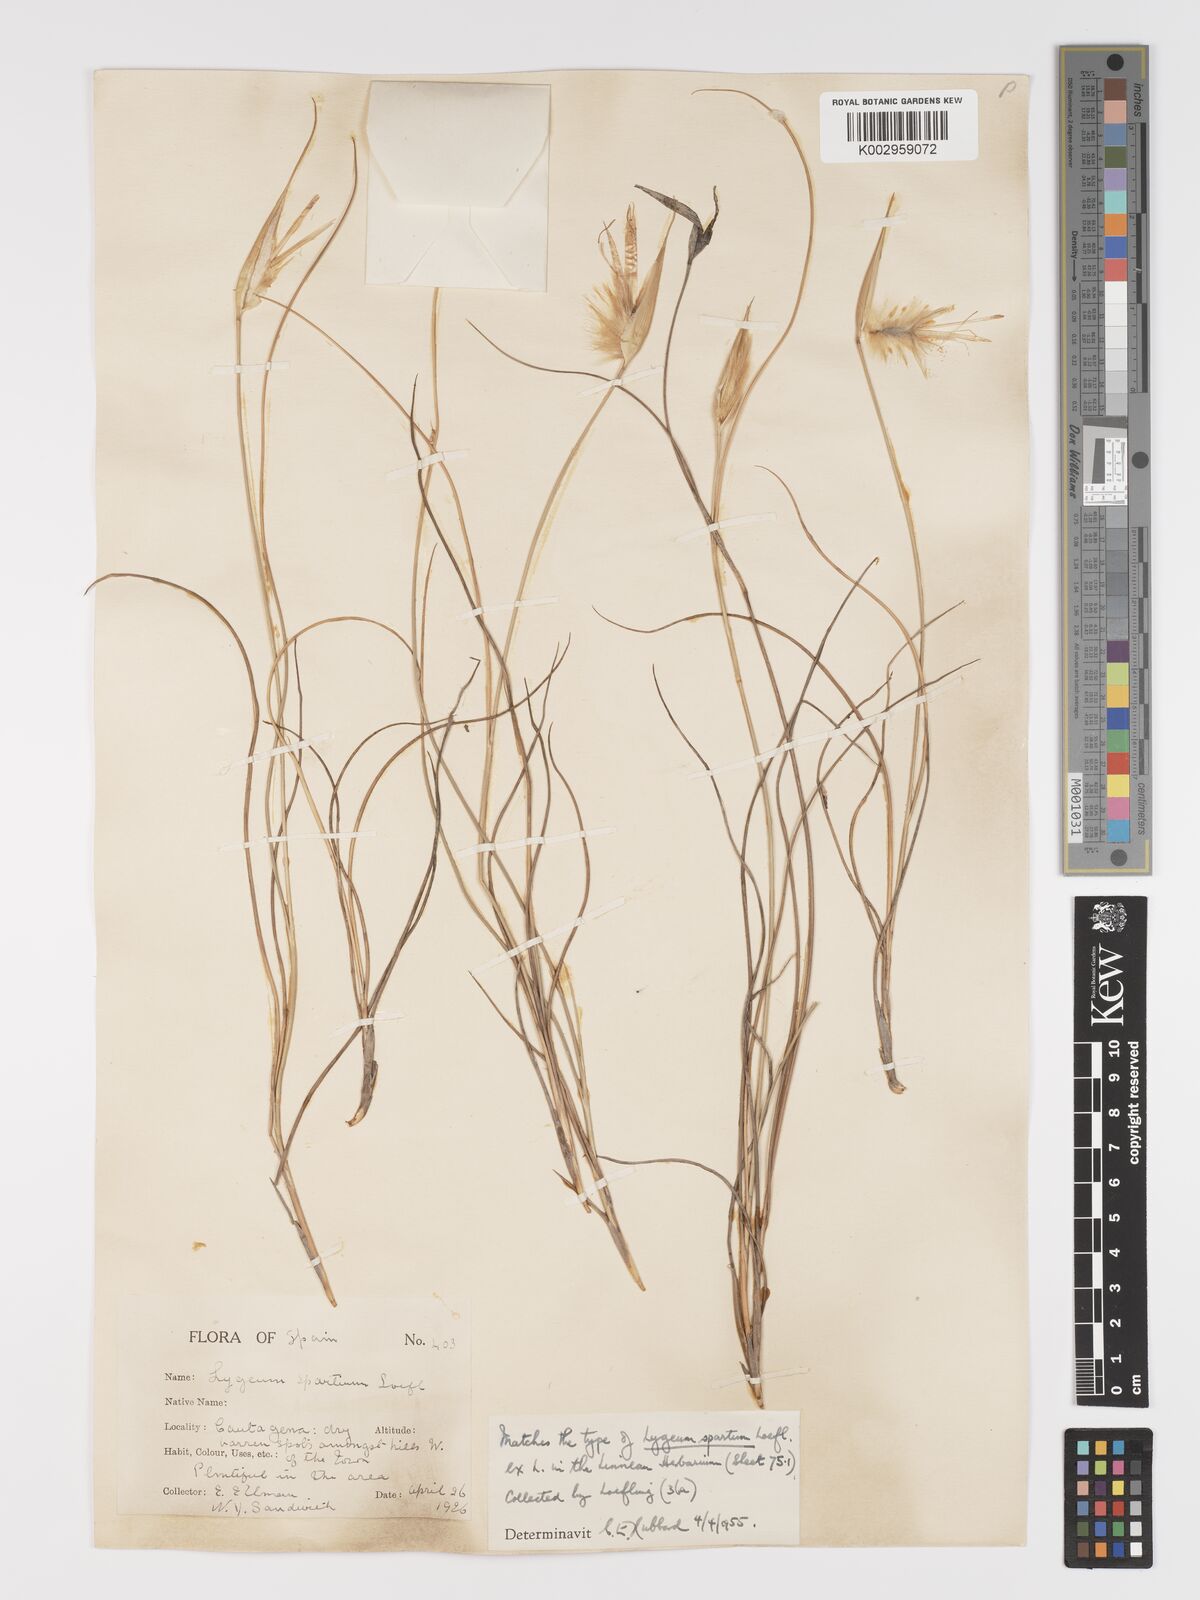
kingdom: Plantae
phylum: Tracheophyta
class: Liliopsida
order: Poales
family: Poaceae
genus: Lygeum
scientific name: Lygeum spartum
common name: Albardine
